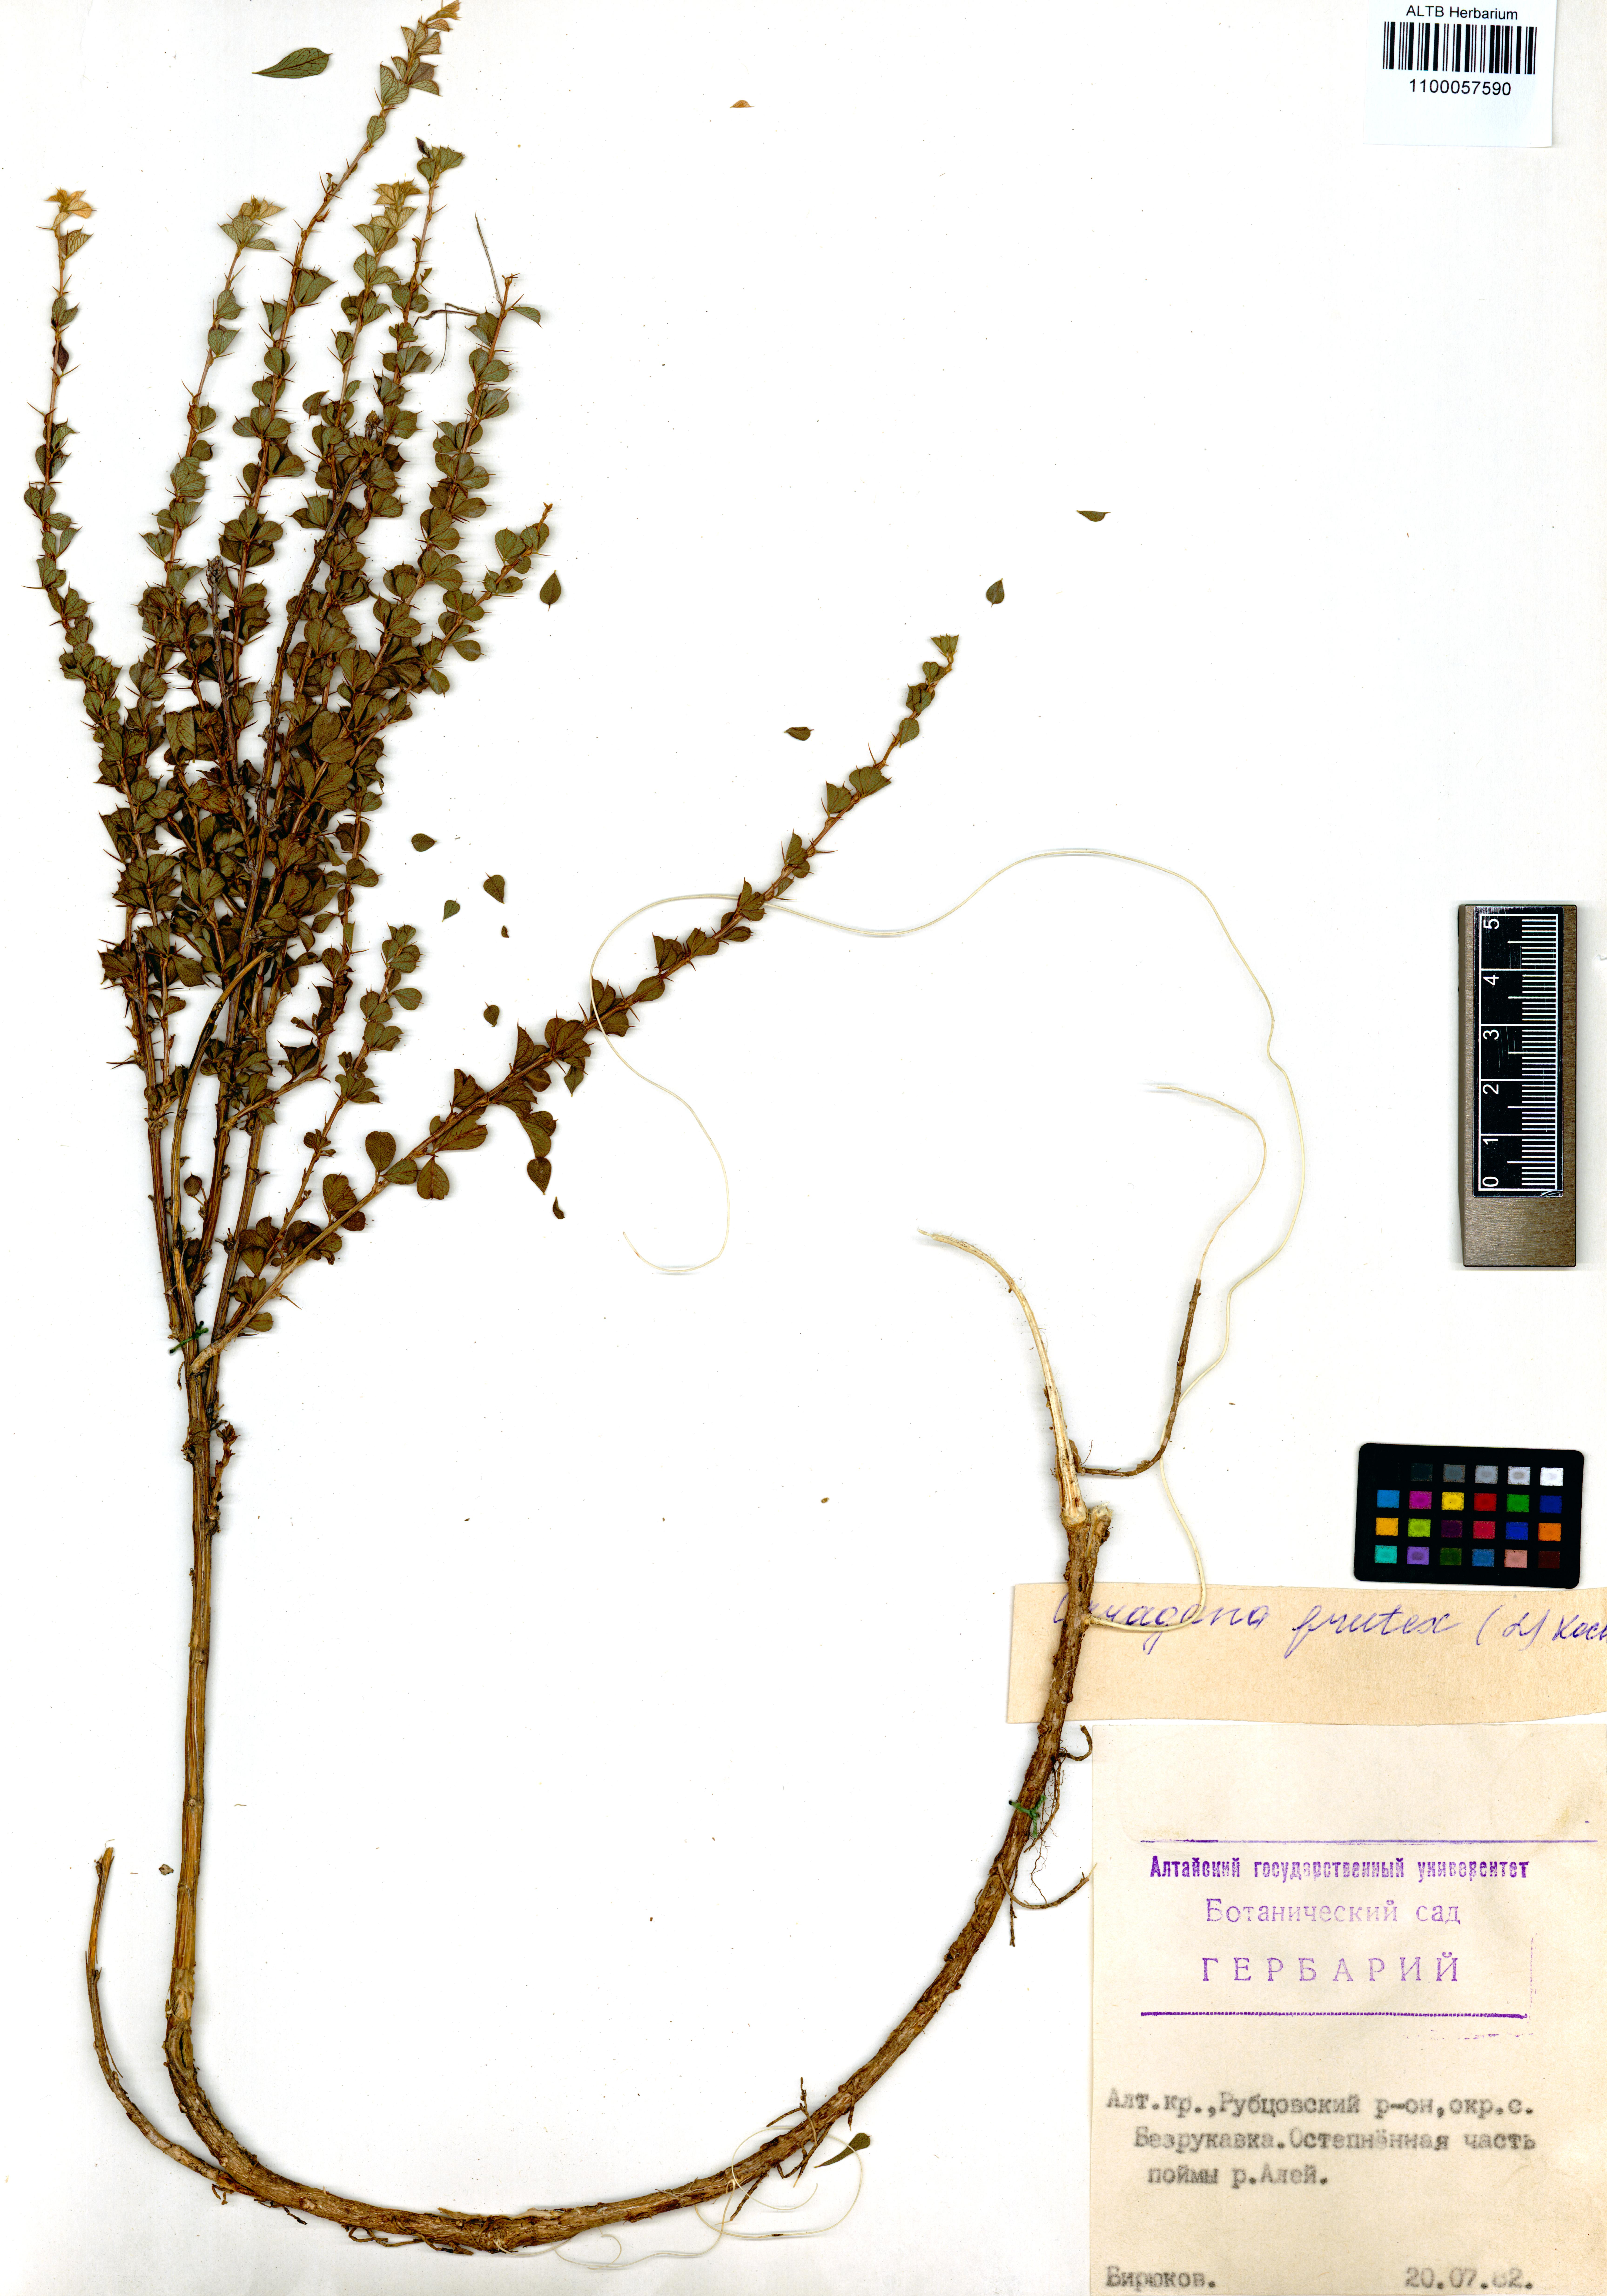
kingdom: Plantae
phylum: Tracheophyta
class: Magnoliopsida
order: Fabales
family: Fabaceae
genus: Caragana
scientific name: Caragana frutex
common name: Russian peashrub
